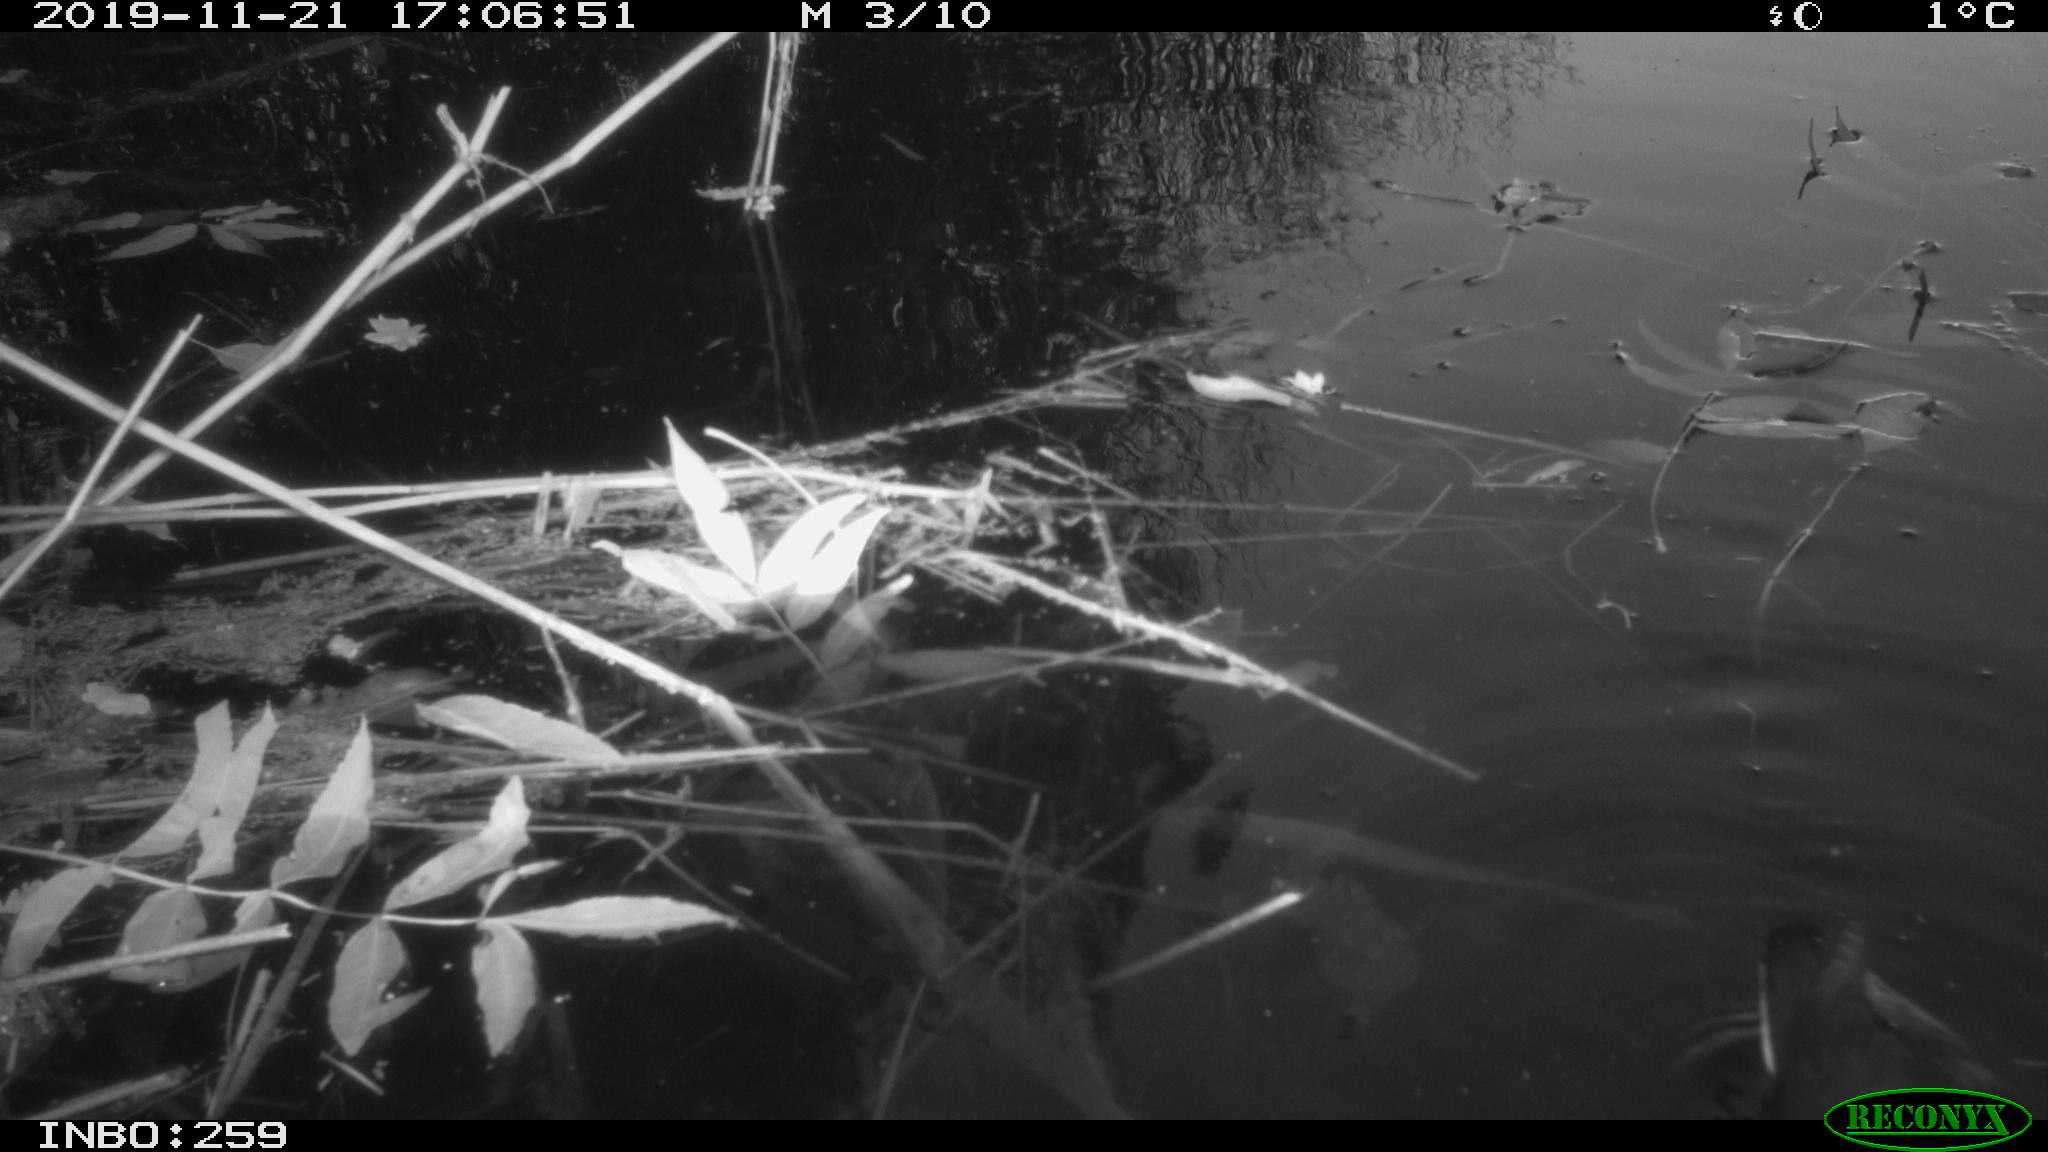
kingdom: Animalia
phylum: Chordata
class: Aves
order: Gruiformes
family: Rallidae
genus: Fulica
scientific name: Fulica atra
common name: Eurasian coot
